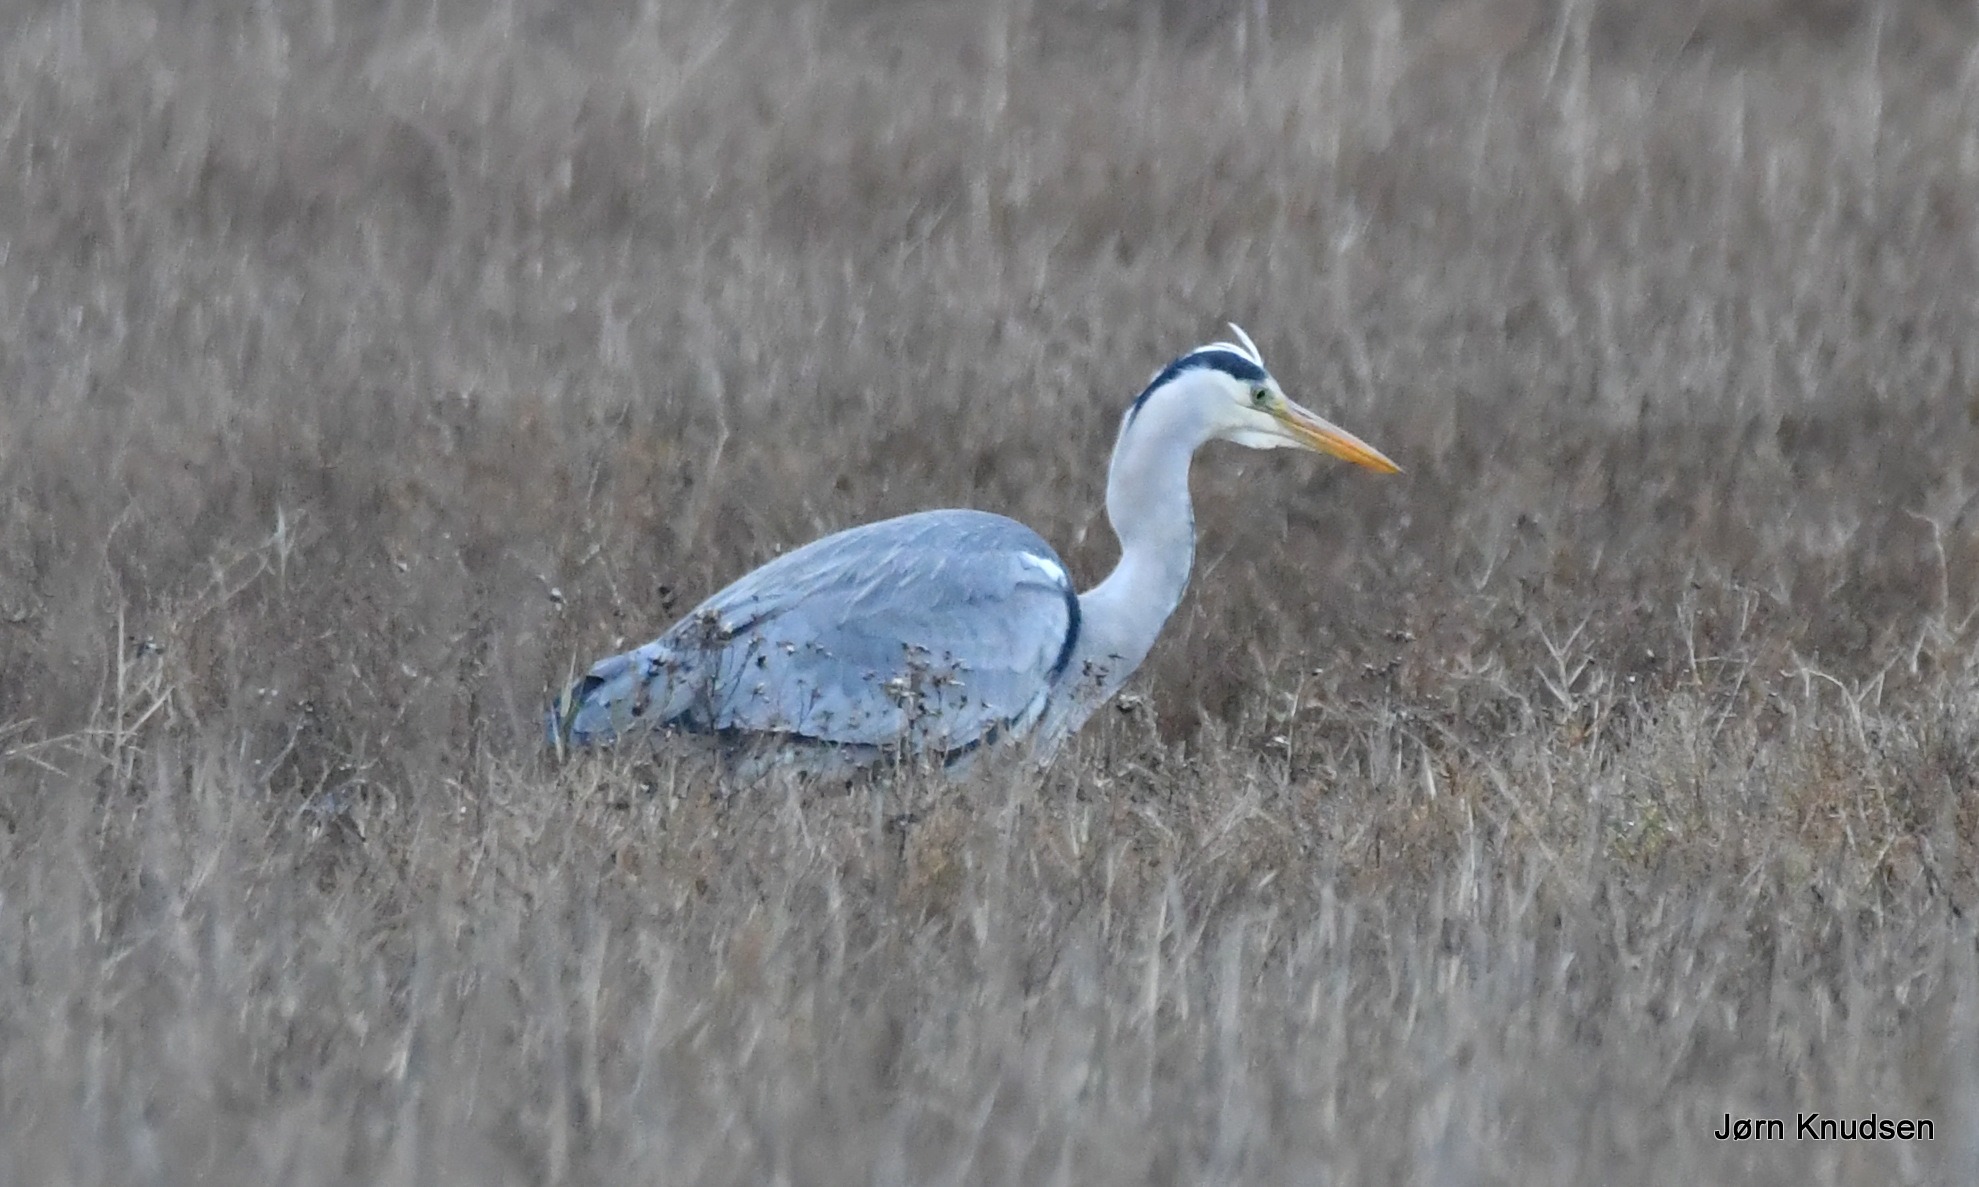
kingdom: Animalia
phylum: Chordata
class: Aves
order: Pelecaniformes
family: Ardeidae
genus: Ardea
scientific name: Ardea cinerea
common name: Fiskehejre
